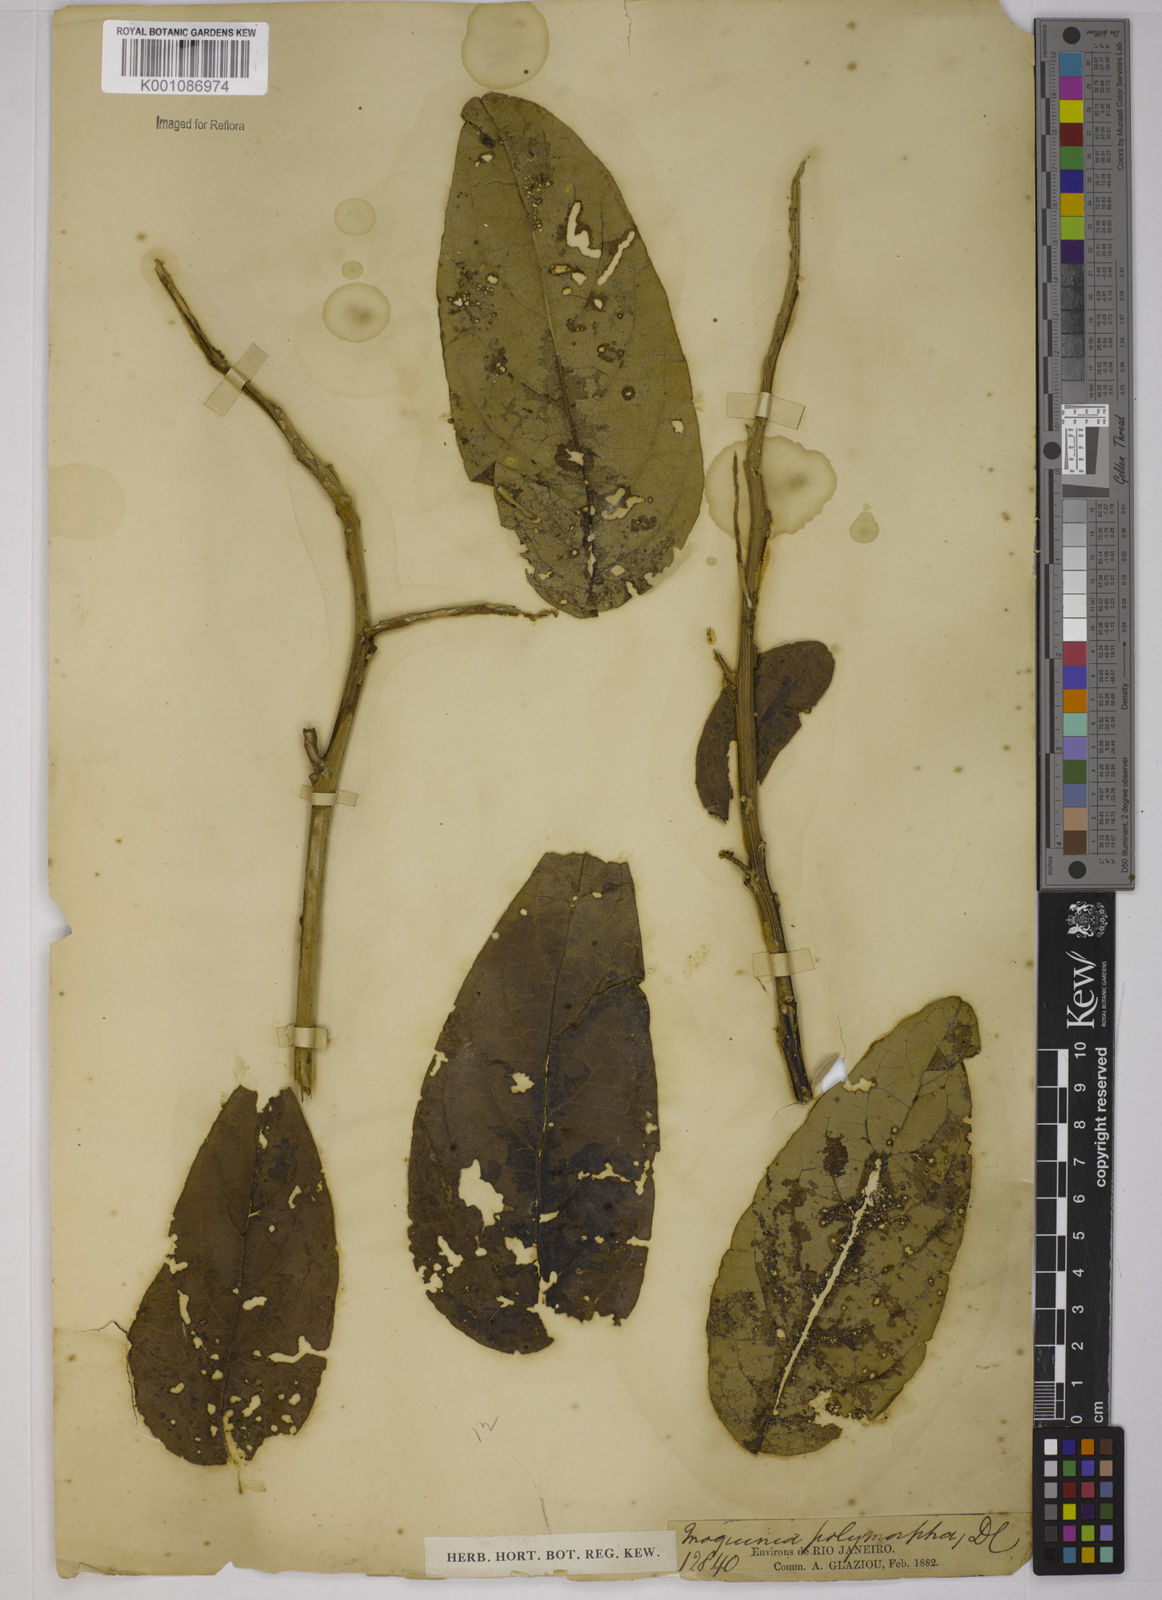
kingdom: Plantae
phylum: Tracheophyta
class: Magnoliopsida
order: Asterales
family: Asteraceae
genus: Moquiniastrum
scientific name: Moquiniastrum polymorphum
